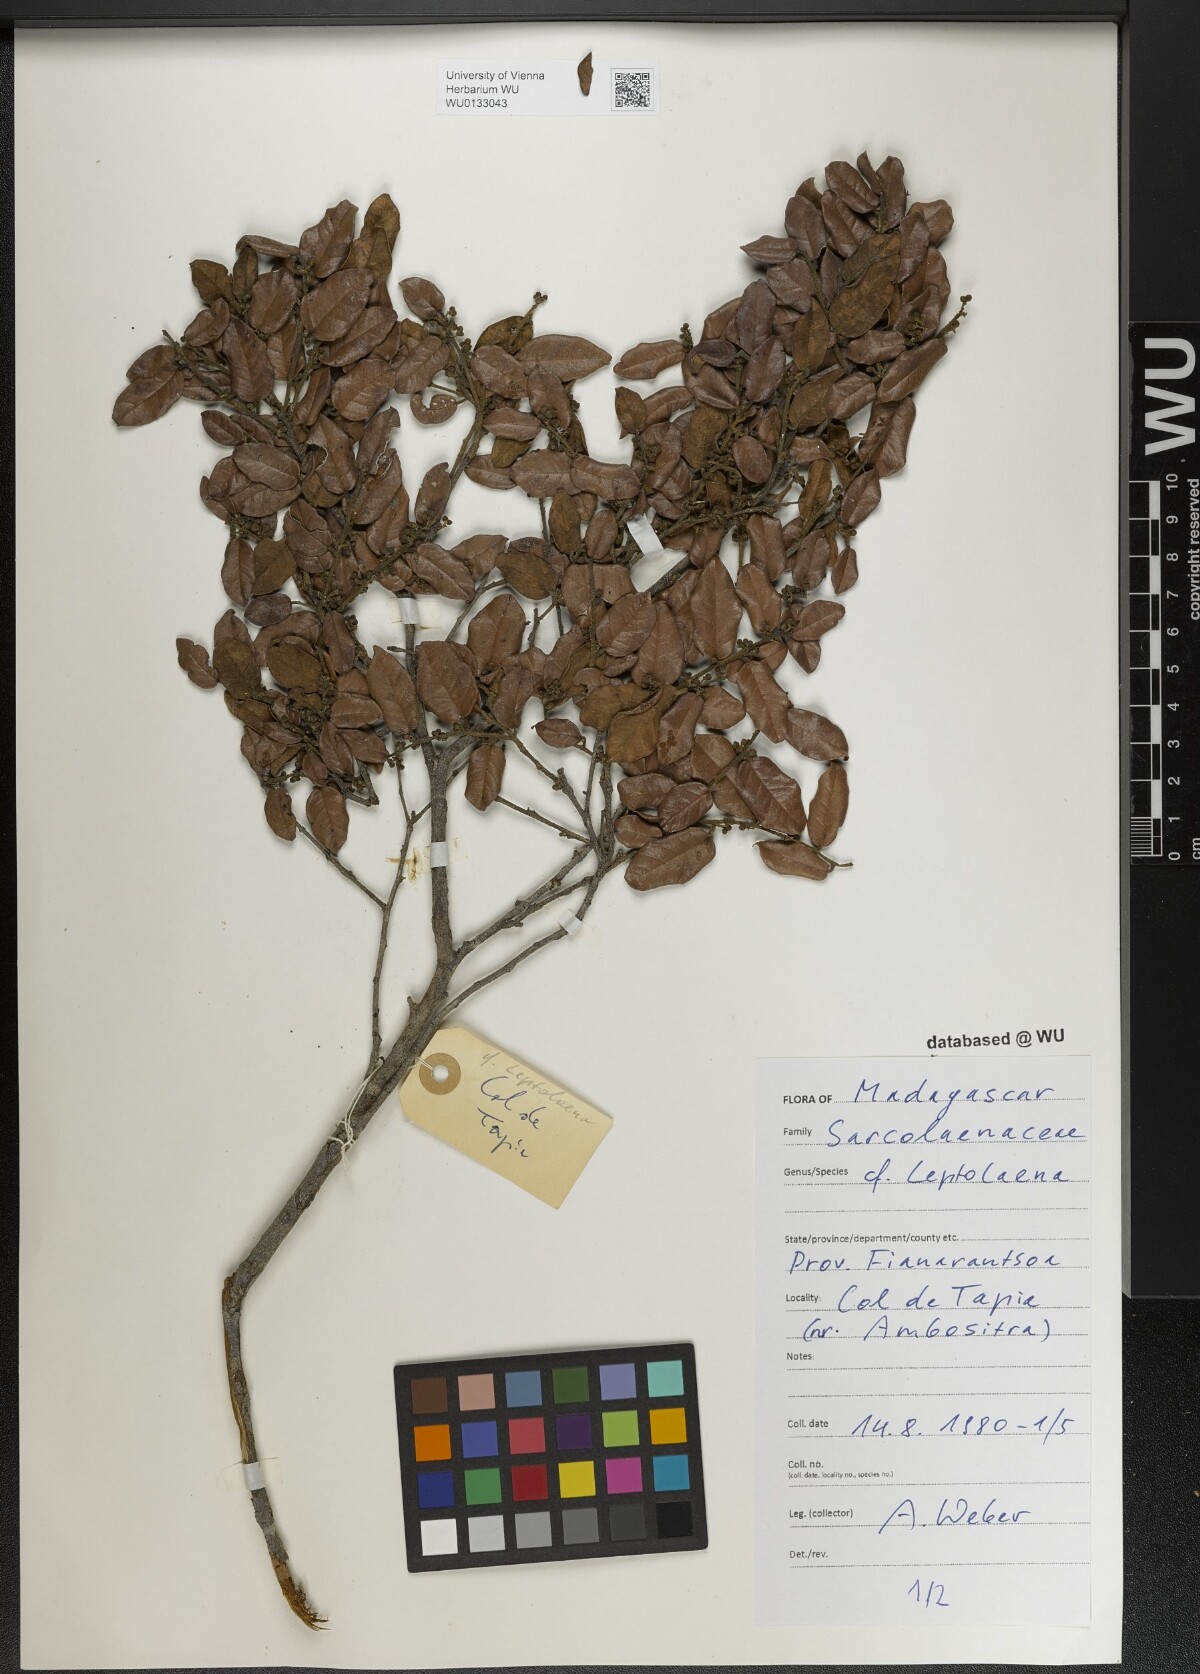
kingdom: Plantae
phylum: Tracheophyta
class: Magnoliopsida
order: Malvales
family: Sarcolaenaceae
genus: Leptolaena
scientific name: Leptolaena
